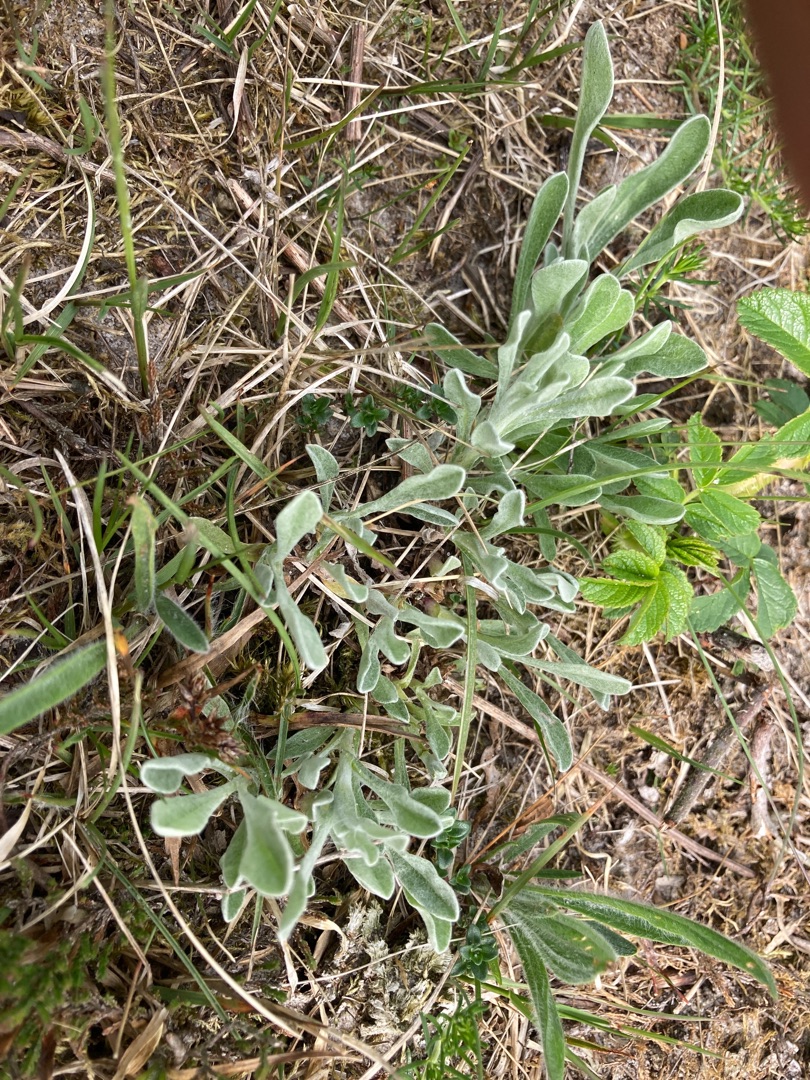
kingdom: Plantae
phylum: Tracheophyta
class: Magnoliopsida
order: Asterales
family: Asteraceae
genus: Helichrysum
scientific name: Helichrysum arenarium
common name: Gul evighedsblomst
